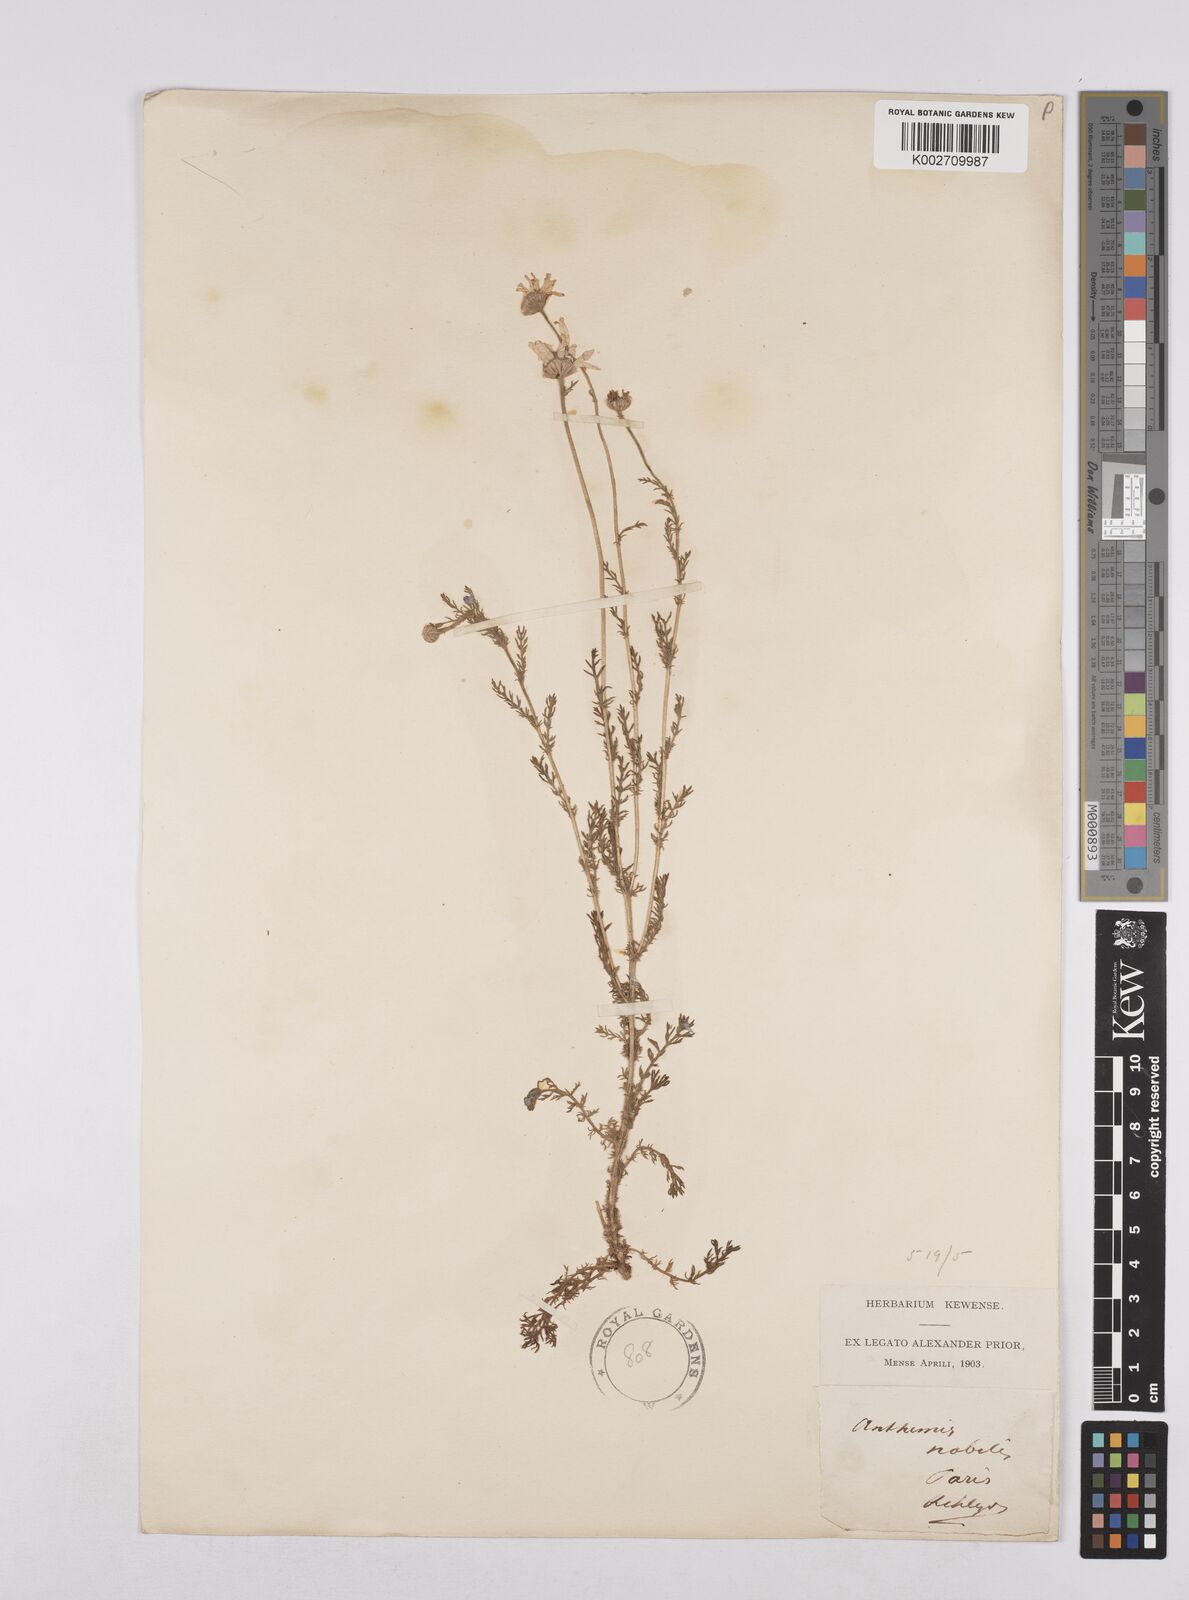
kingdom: Plantae
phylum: Tracheophyta
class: Magnoliopsida
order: Asterales
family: Asteraceae
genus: Chamaemelum
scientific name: Chamaemelum nobile
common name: Roman chamomile
